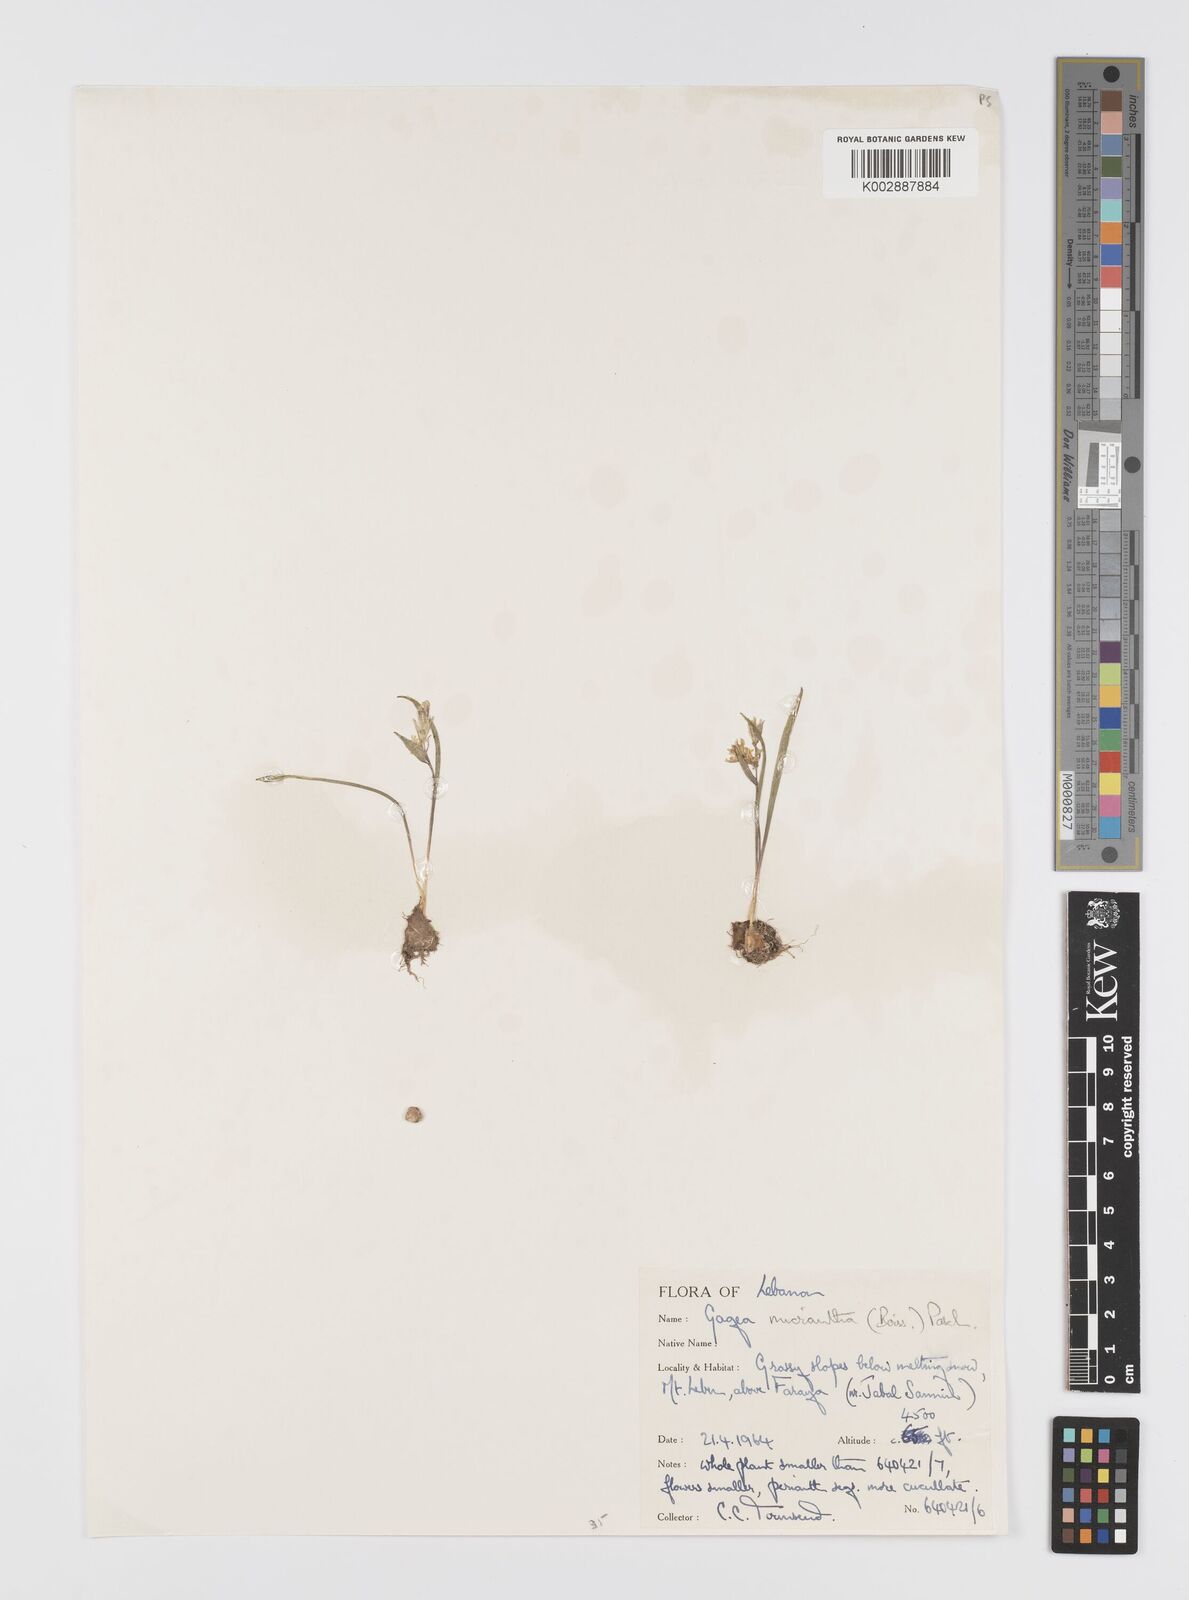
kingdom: Plantae
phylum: Tracheophyta
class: Liliopsida
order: Liliales
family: Liliaceae
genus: Gagea
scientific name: Gagea micrantha
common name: Small-flowered gagea
